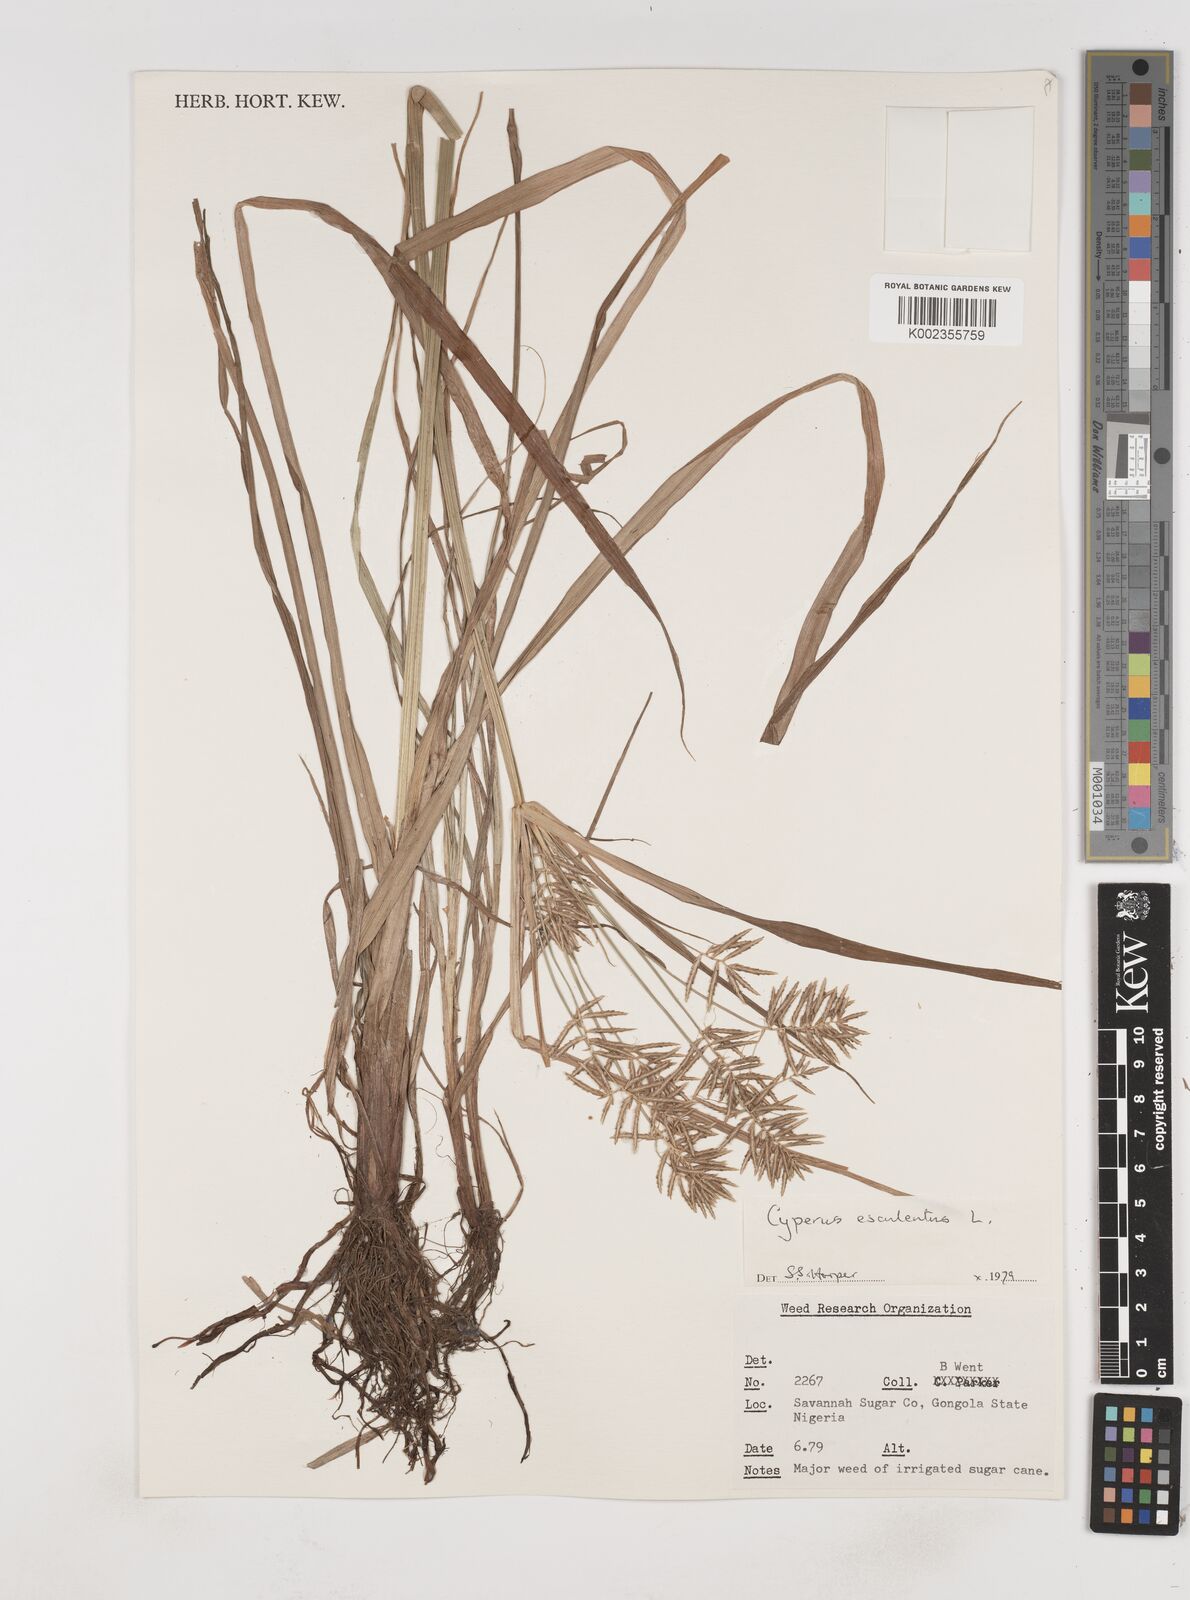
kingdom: Plantae
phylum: Tracheophyta
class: Liliopsida
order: Poales
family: Cyperaceae
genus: Cyperus
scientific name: Cyperus esculentus
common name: Yellow nutsedge
